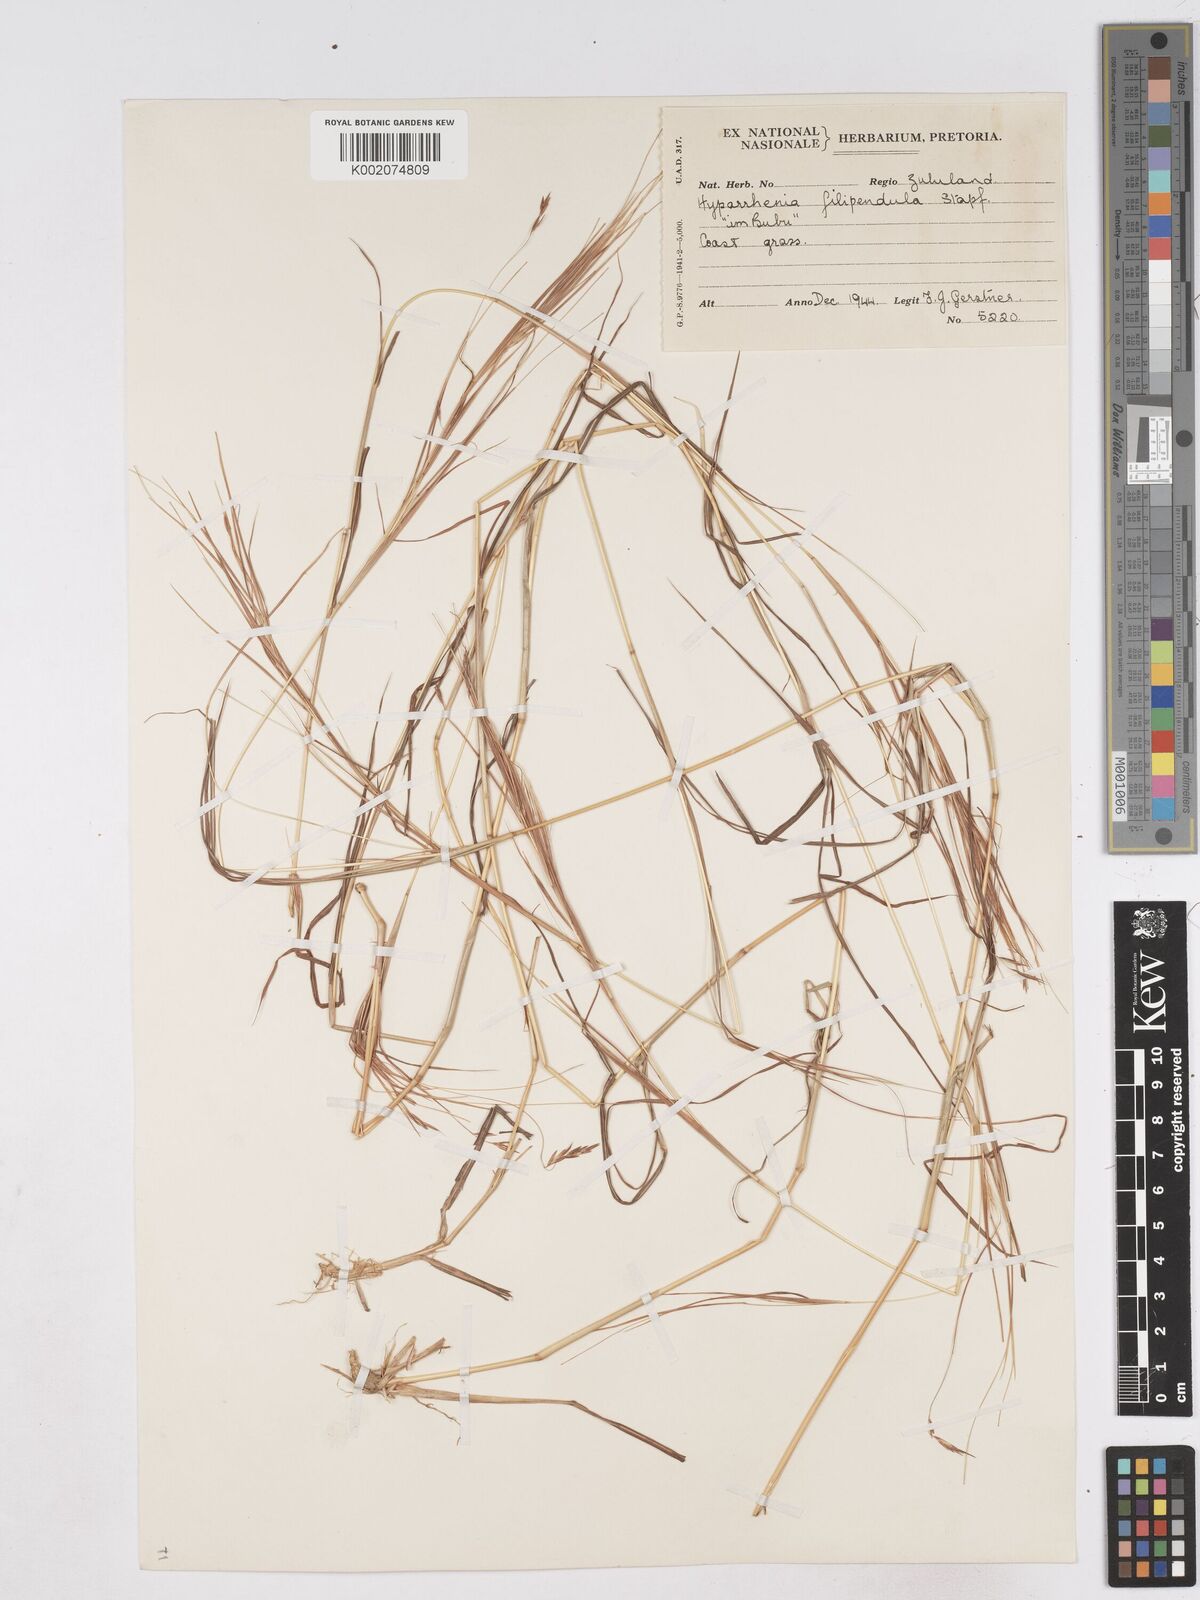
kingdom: Plantae
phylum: Tracheophyta
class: Liliopsida
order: Poales
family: Poaceae
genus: Hyparrhenia
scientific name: Hyparrhenia filipendula
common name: Tambookie grass
